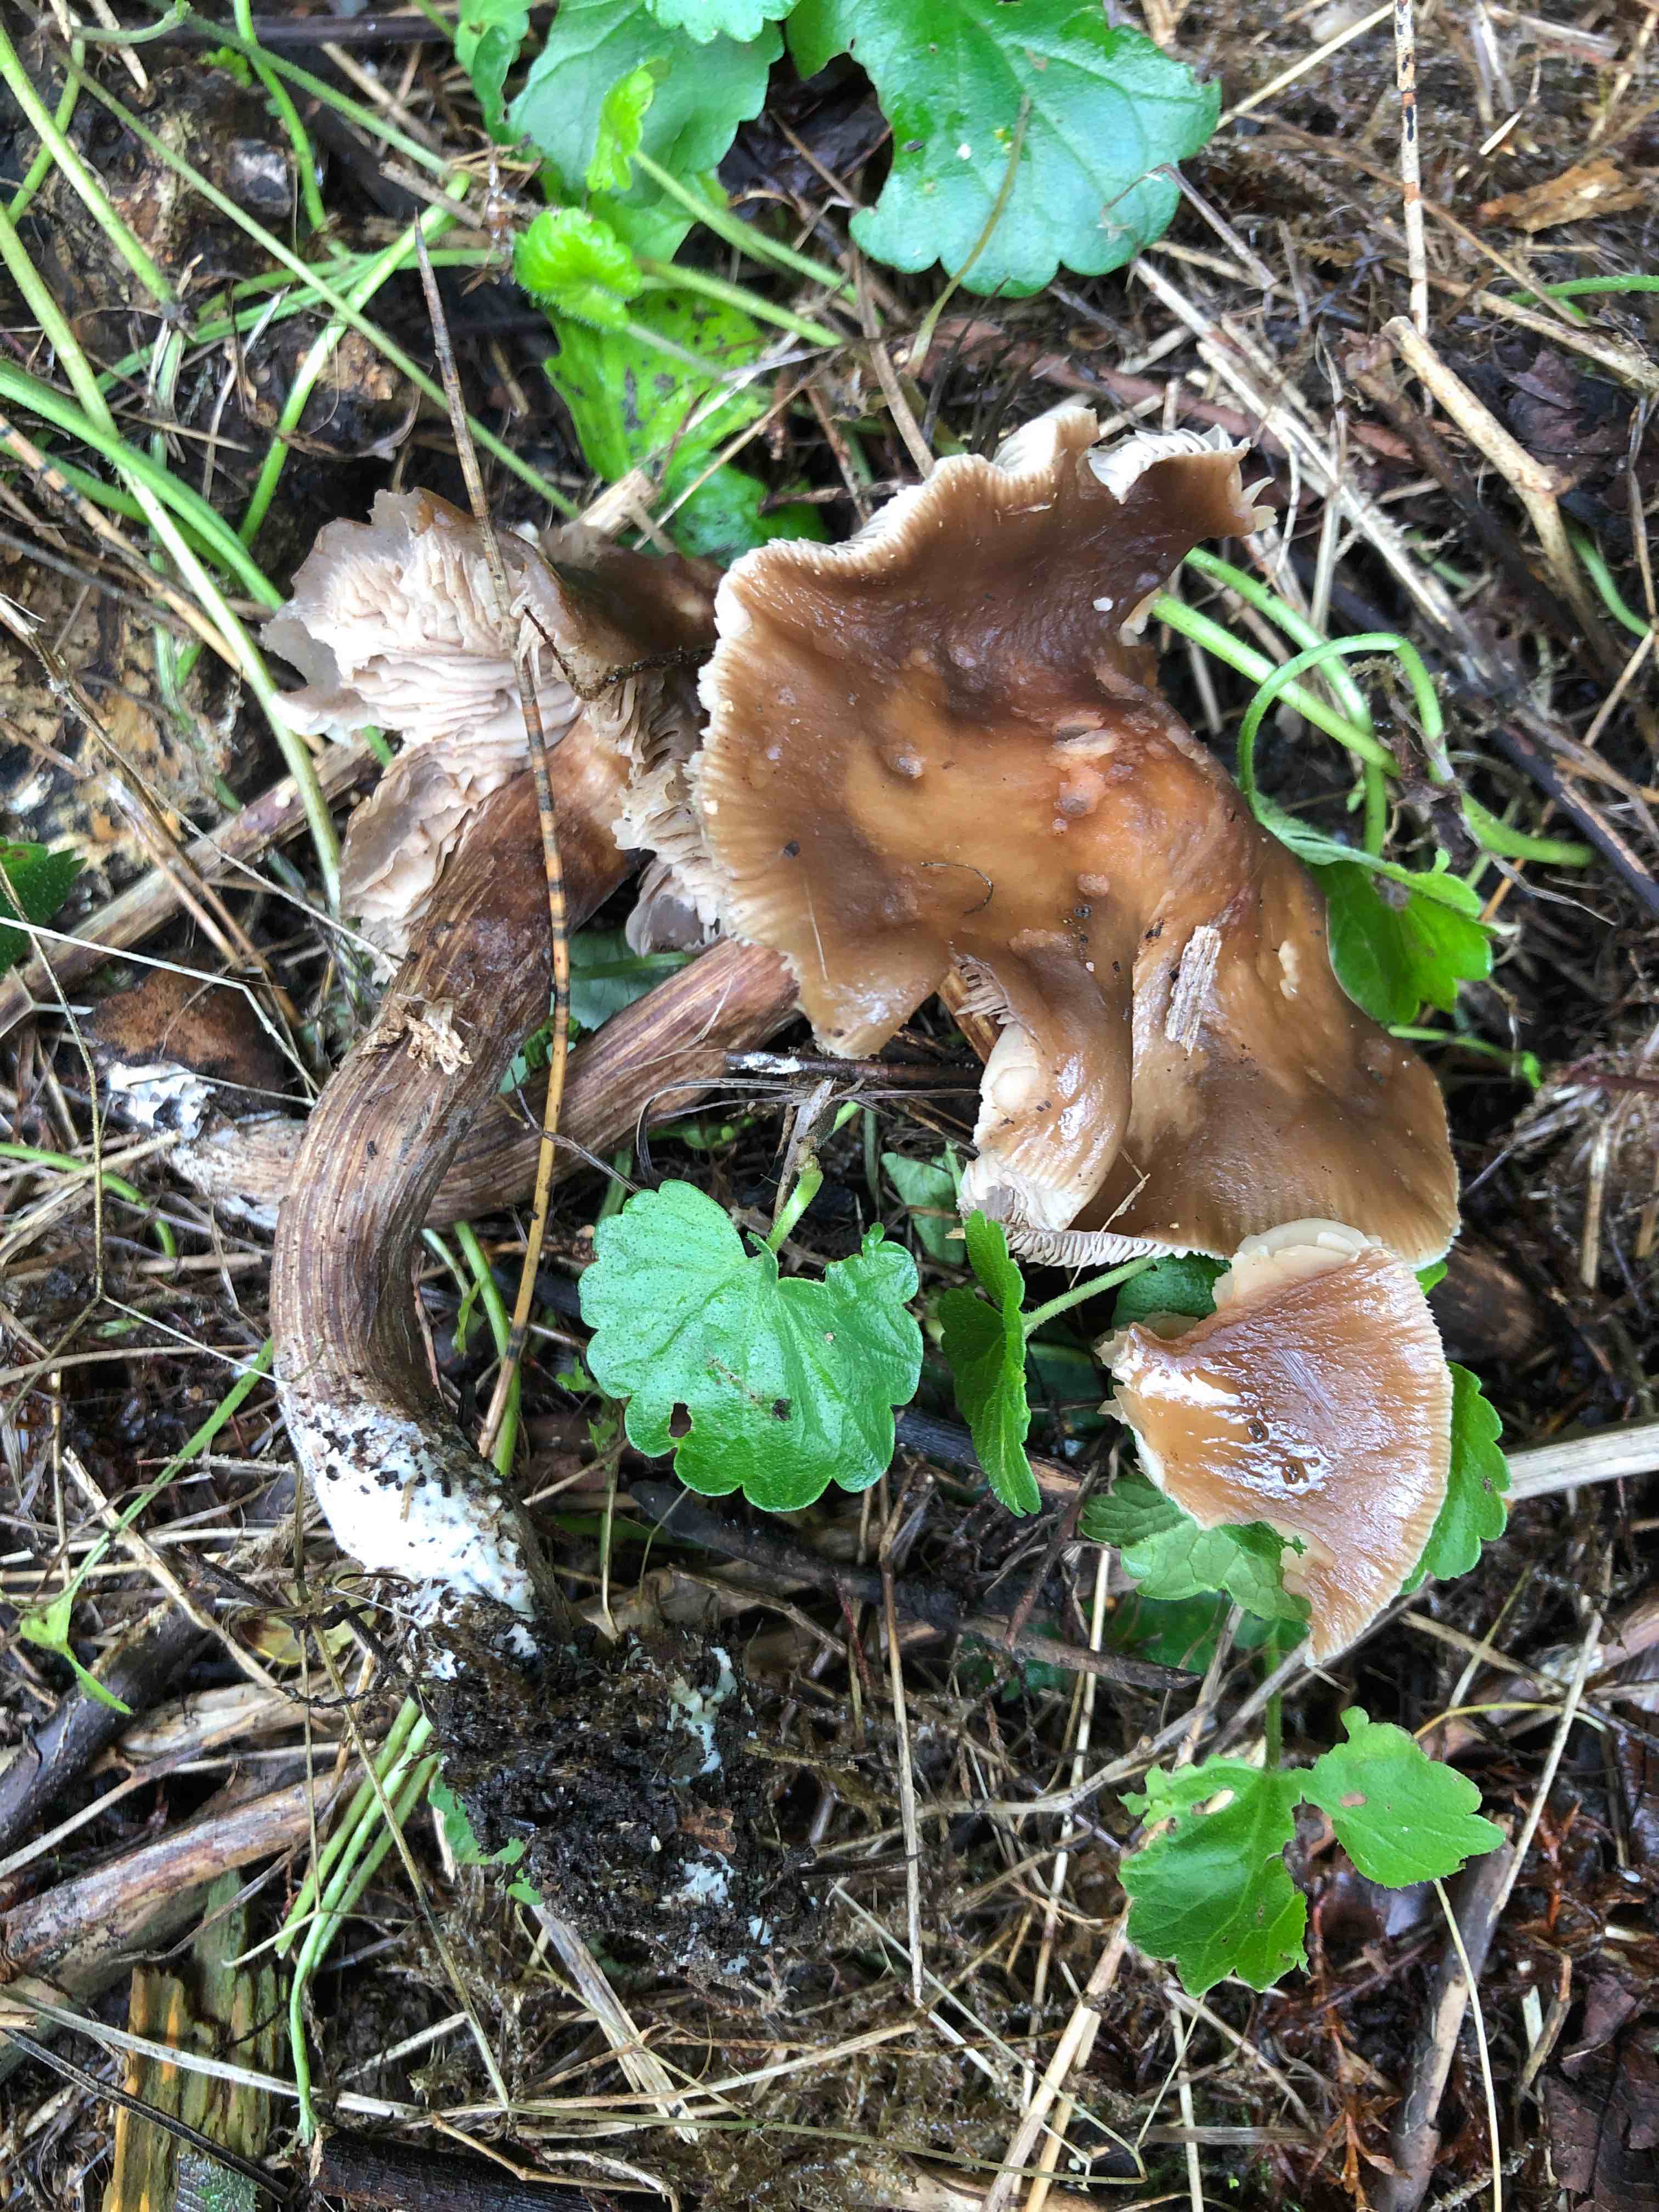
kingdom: Fungi
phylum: Basidiomycota
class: Agaricomycetes
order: Agaricales
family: Tubariaceae
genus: Cyclocybe
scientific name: Cyclocybe erebia
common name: mørk agerhat
